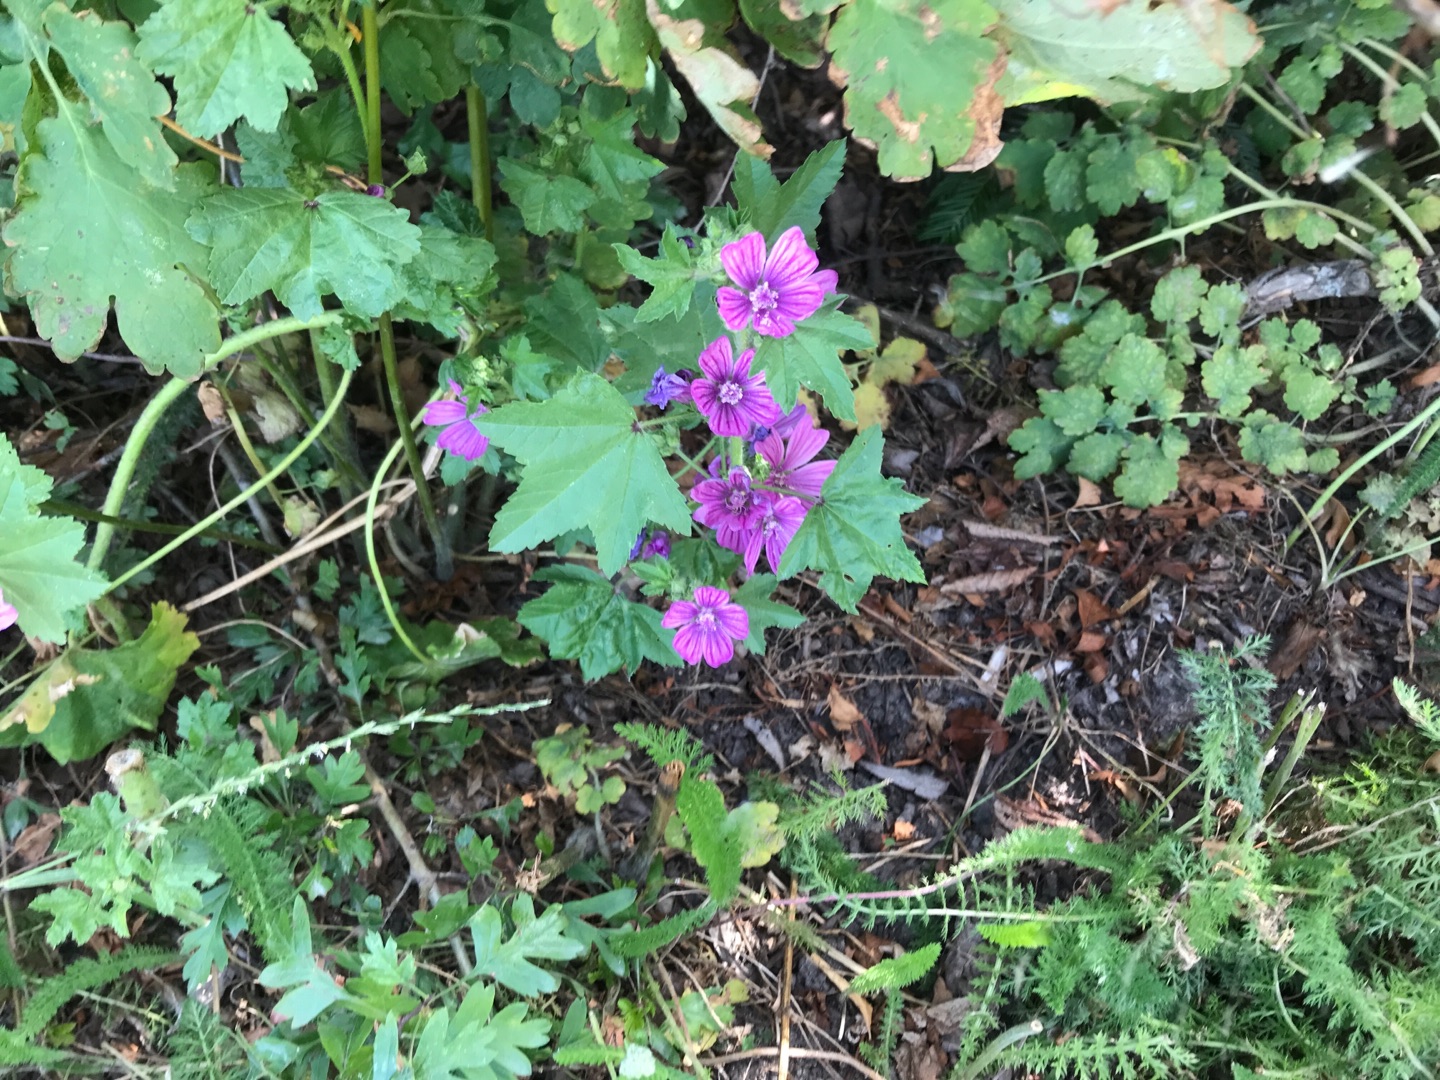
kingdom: Plantae
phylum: Tracheophyta
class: Magnoliopsida
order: Malvales
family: Malvaceae
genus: Malva
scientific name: Malva sylvestris
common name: Almindelig katost
